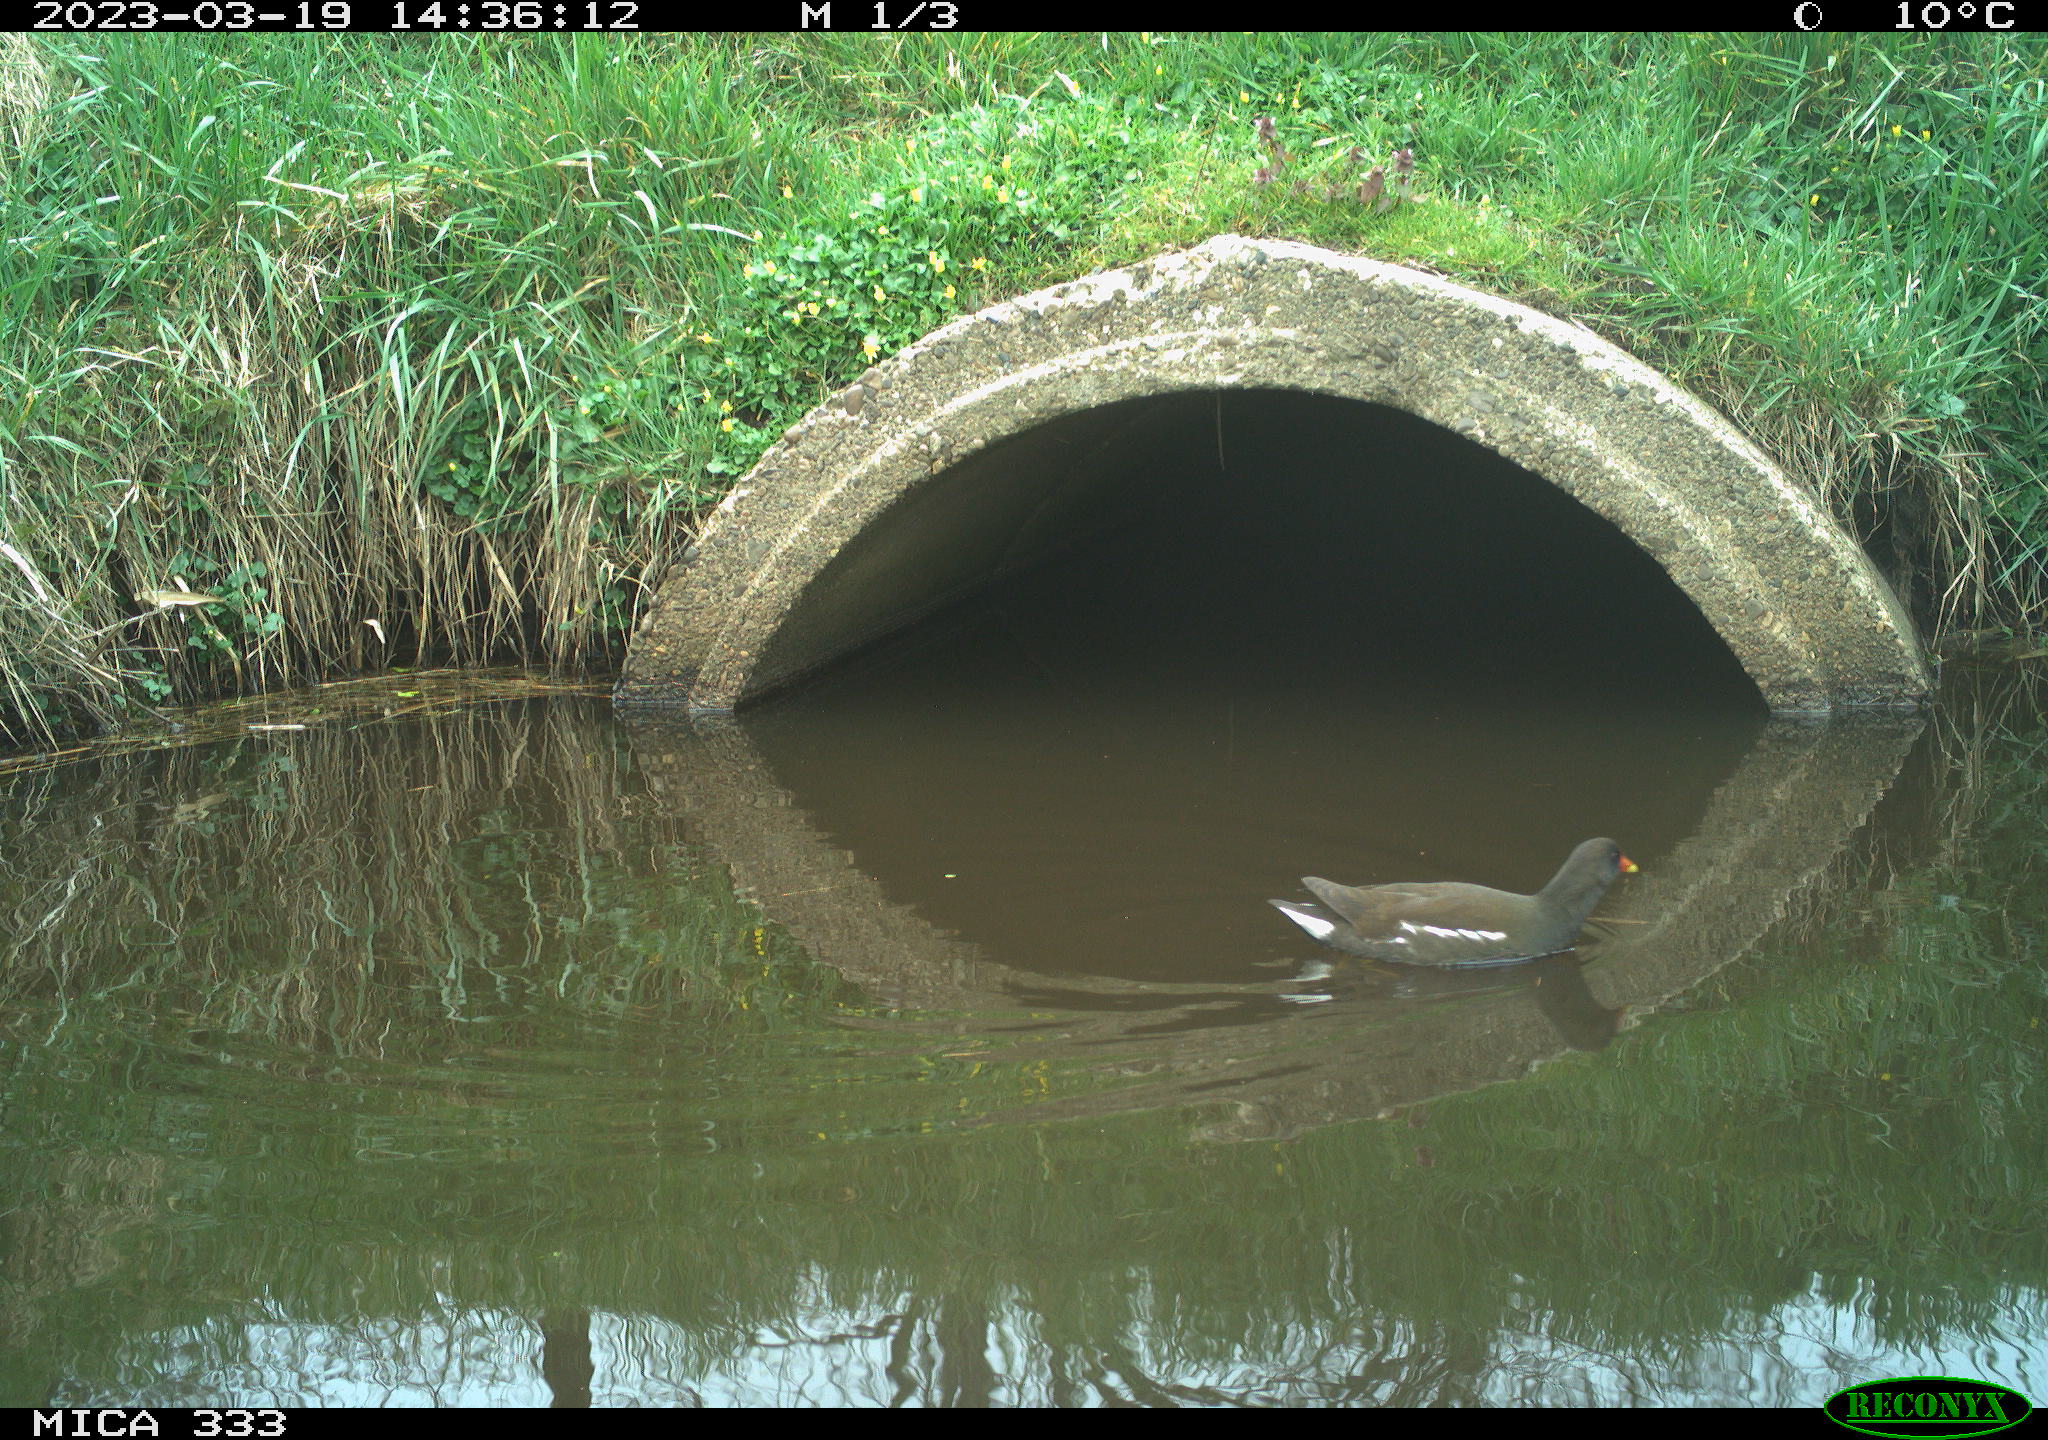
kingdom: Animalia
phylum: Chordata
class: Aves
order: Gruiformes
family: Rallidae
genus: Gallinula
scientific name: Gallinula chloropus
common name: Common moorhen
